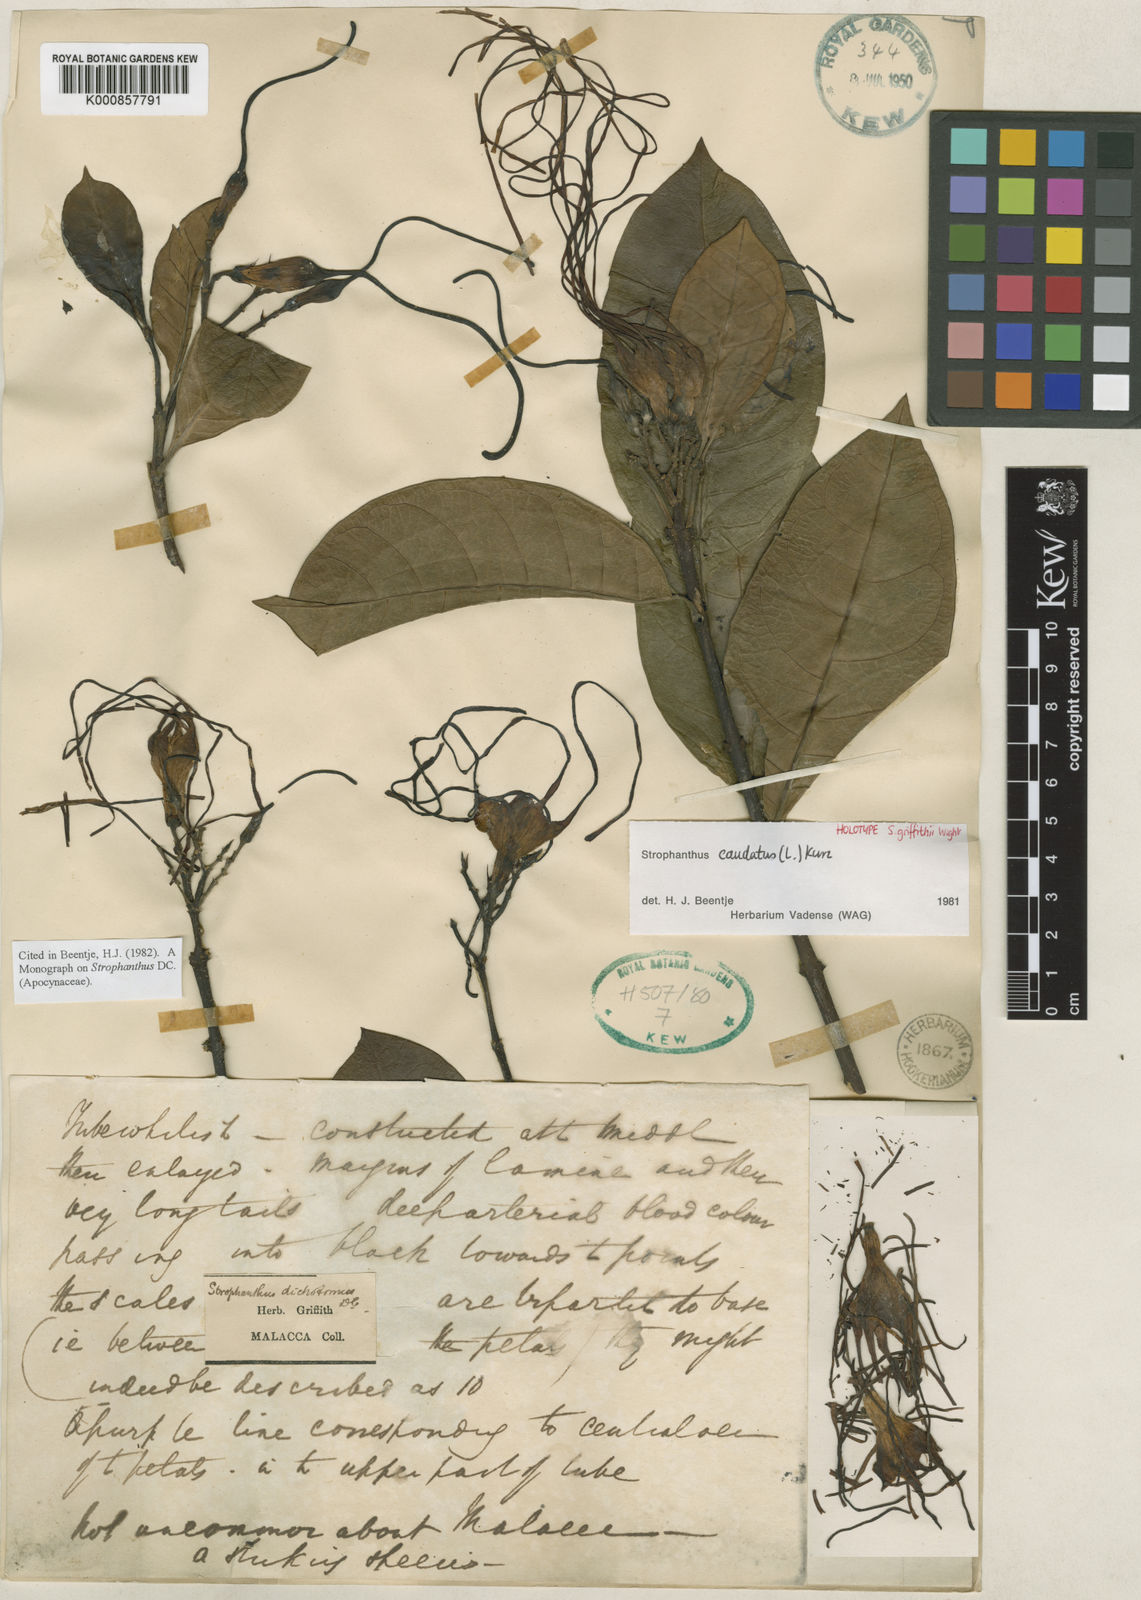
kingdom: Plantae
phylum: Tracheophyta
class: Magnoliopsida
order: Gentianales
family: Apocynaceae
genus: Strophanthus
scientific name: Strophanthus caudatus
